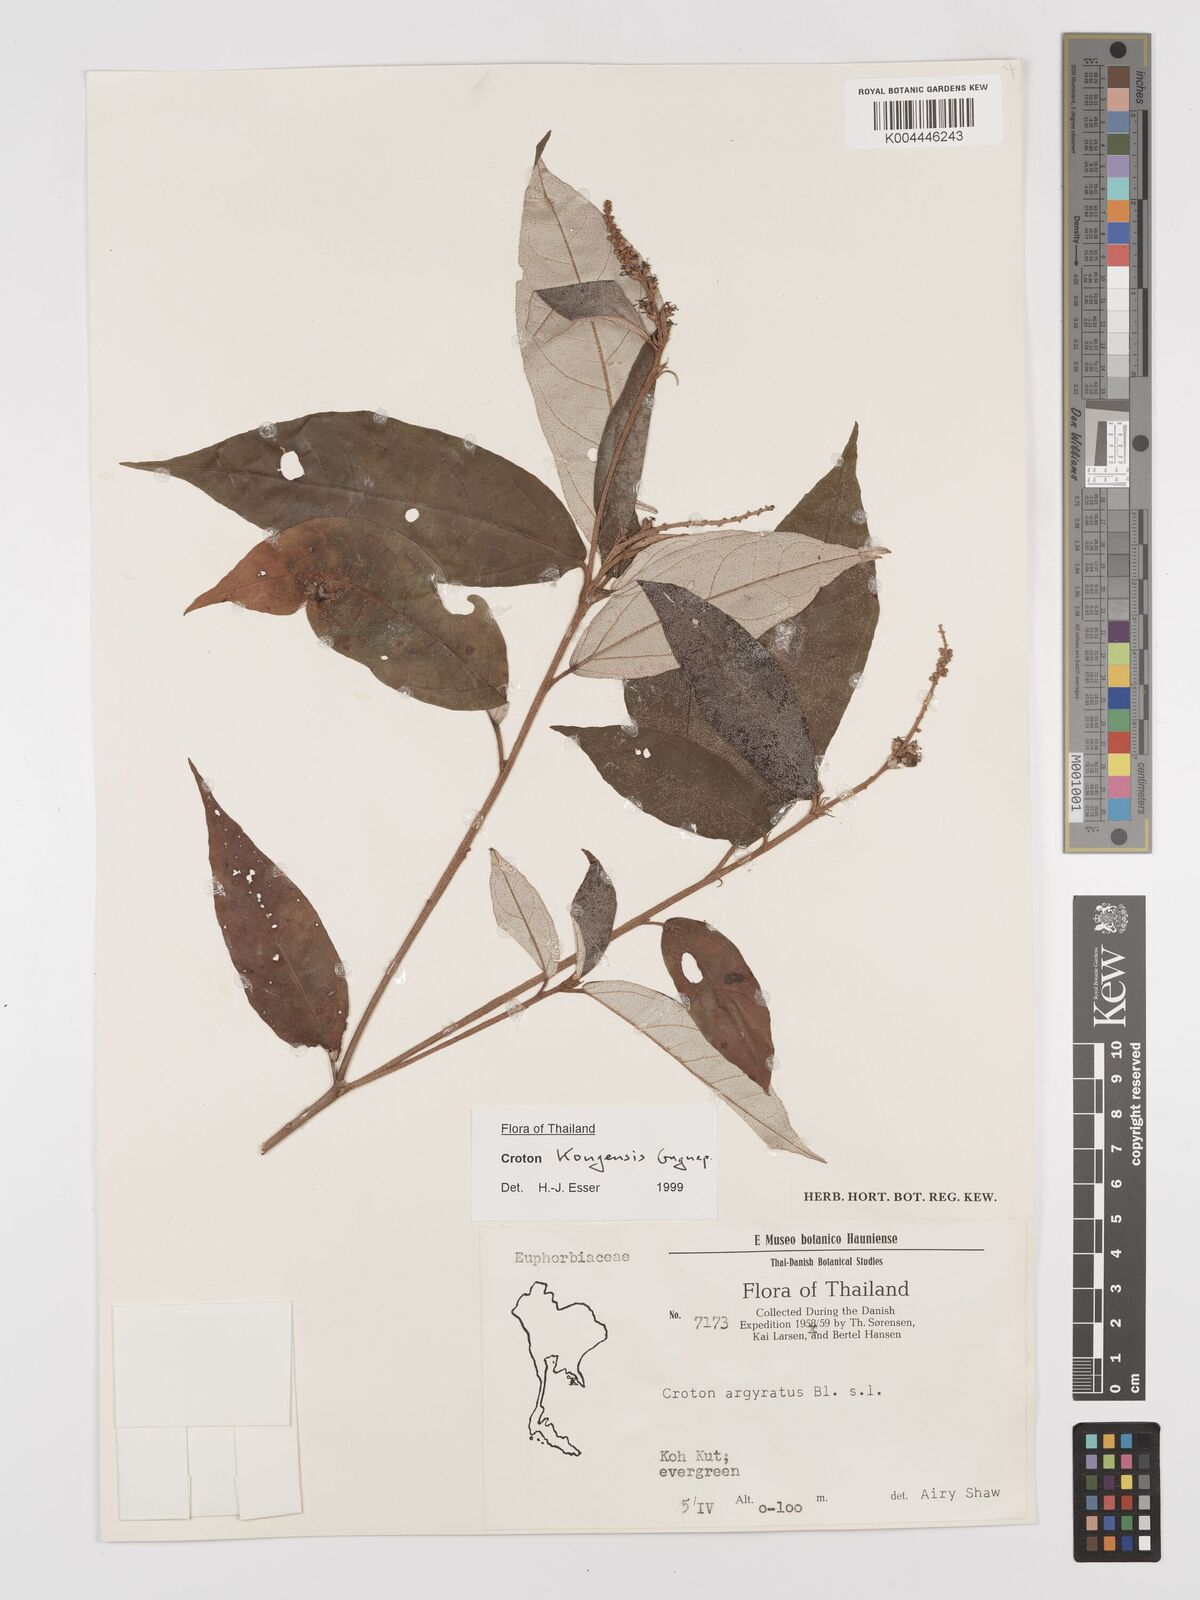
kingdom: Plantae
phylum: Tracheophyta
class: Magnoliopsida
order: Malpighiales
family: Euphorbiaceae
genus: Croton
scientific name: Croton kongensis
